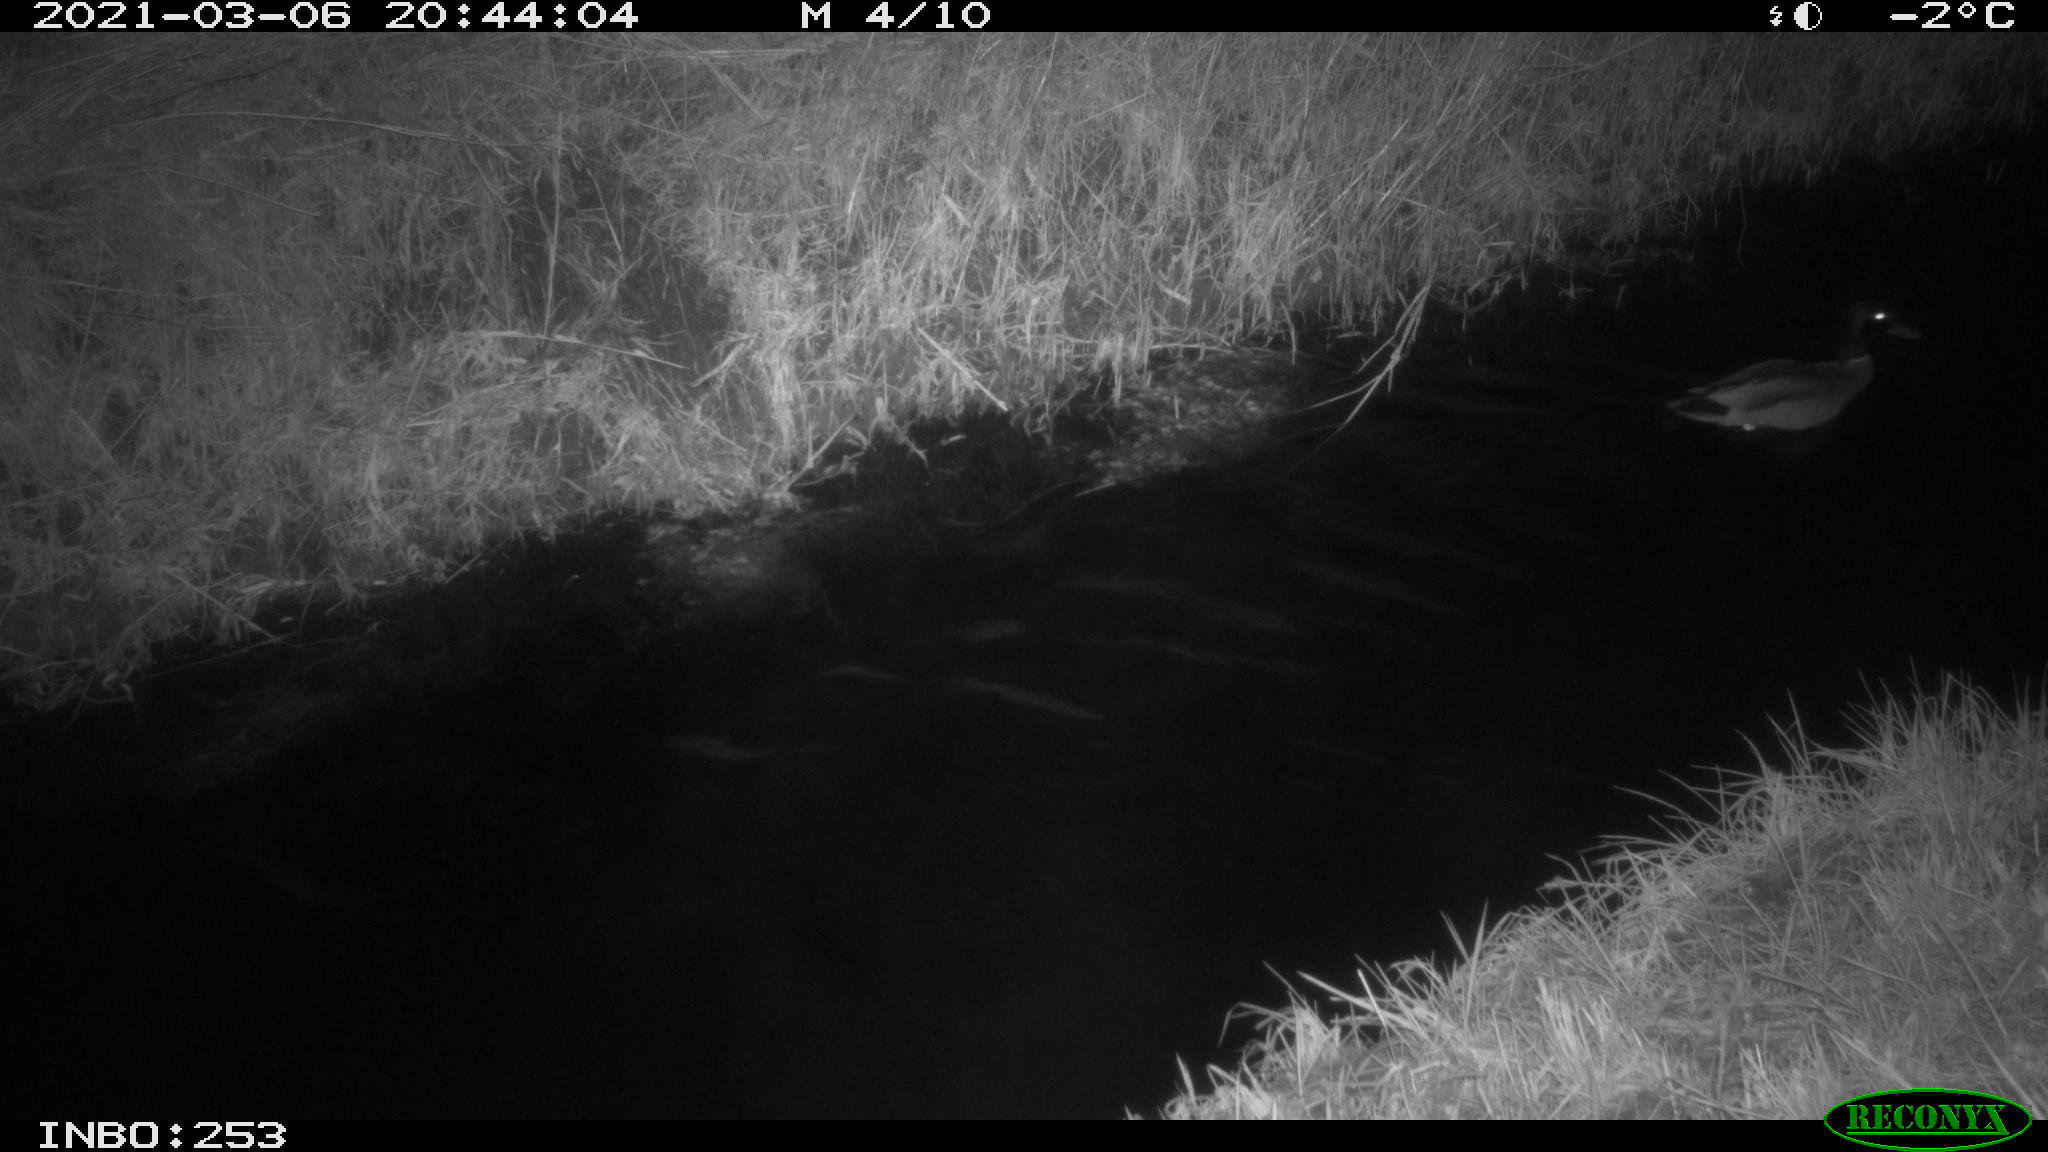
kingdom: Animalia
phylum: Chordata
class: Aves
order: Anseriformes
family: Anatidae
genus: Anas
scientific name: Anas platyrhynchos
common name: Mallard
